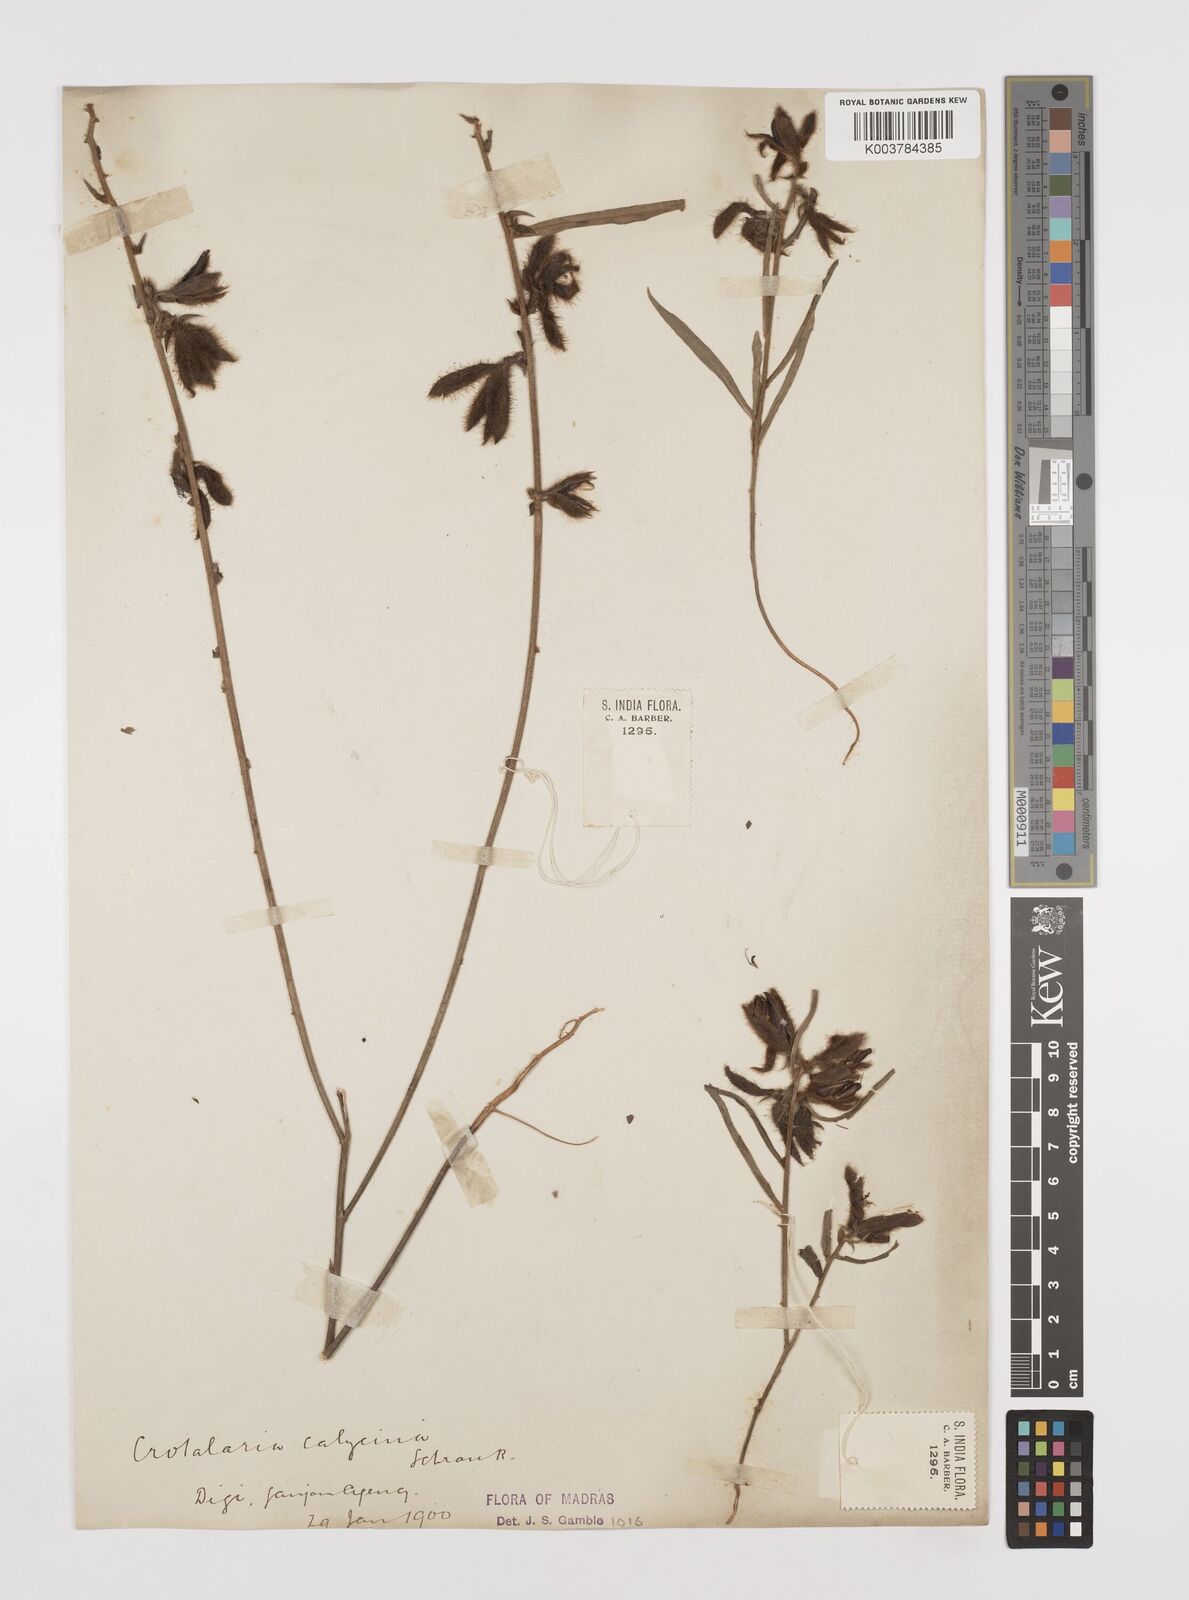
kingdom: Plantae
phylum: Tracheophyta
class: Magnoliopsida
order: Fabales
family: Fabaceae
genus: Crotalaria
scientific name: Crotalaria calycina
